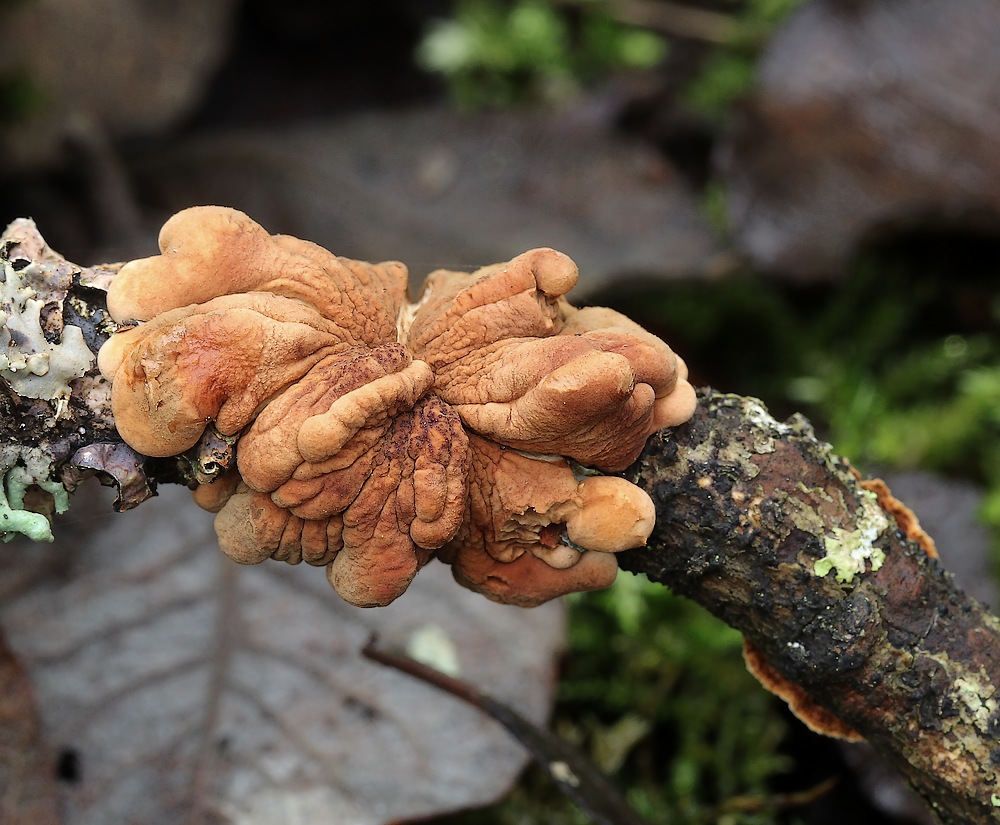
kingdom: Fungi
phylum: Ascomycota
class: Sordariomycetes
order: Hypocreales
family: Hypocreaceae
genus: Hypocreopsis
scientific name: Hypocreopsis lichenoides
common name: pilfinger
